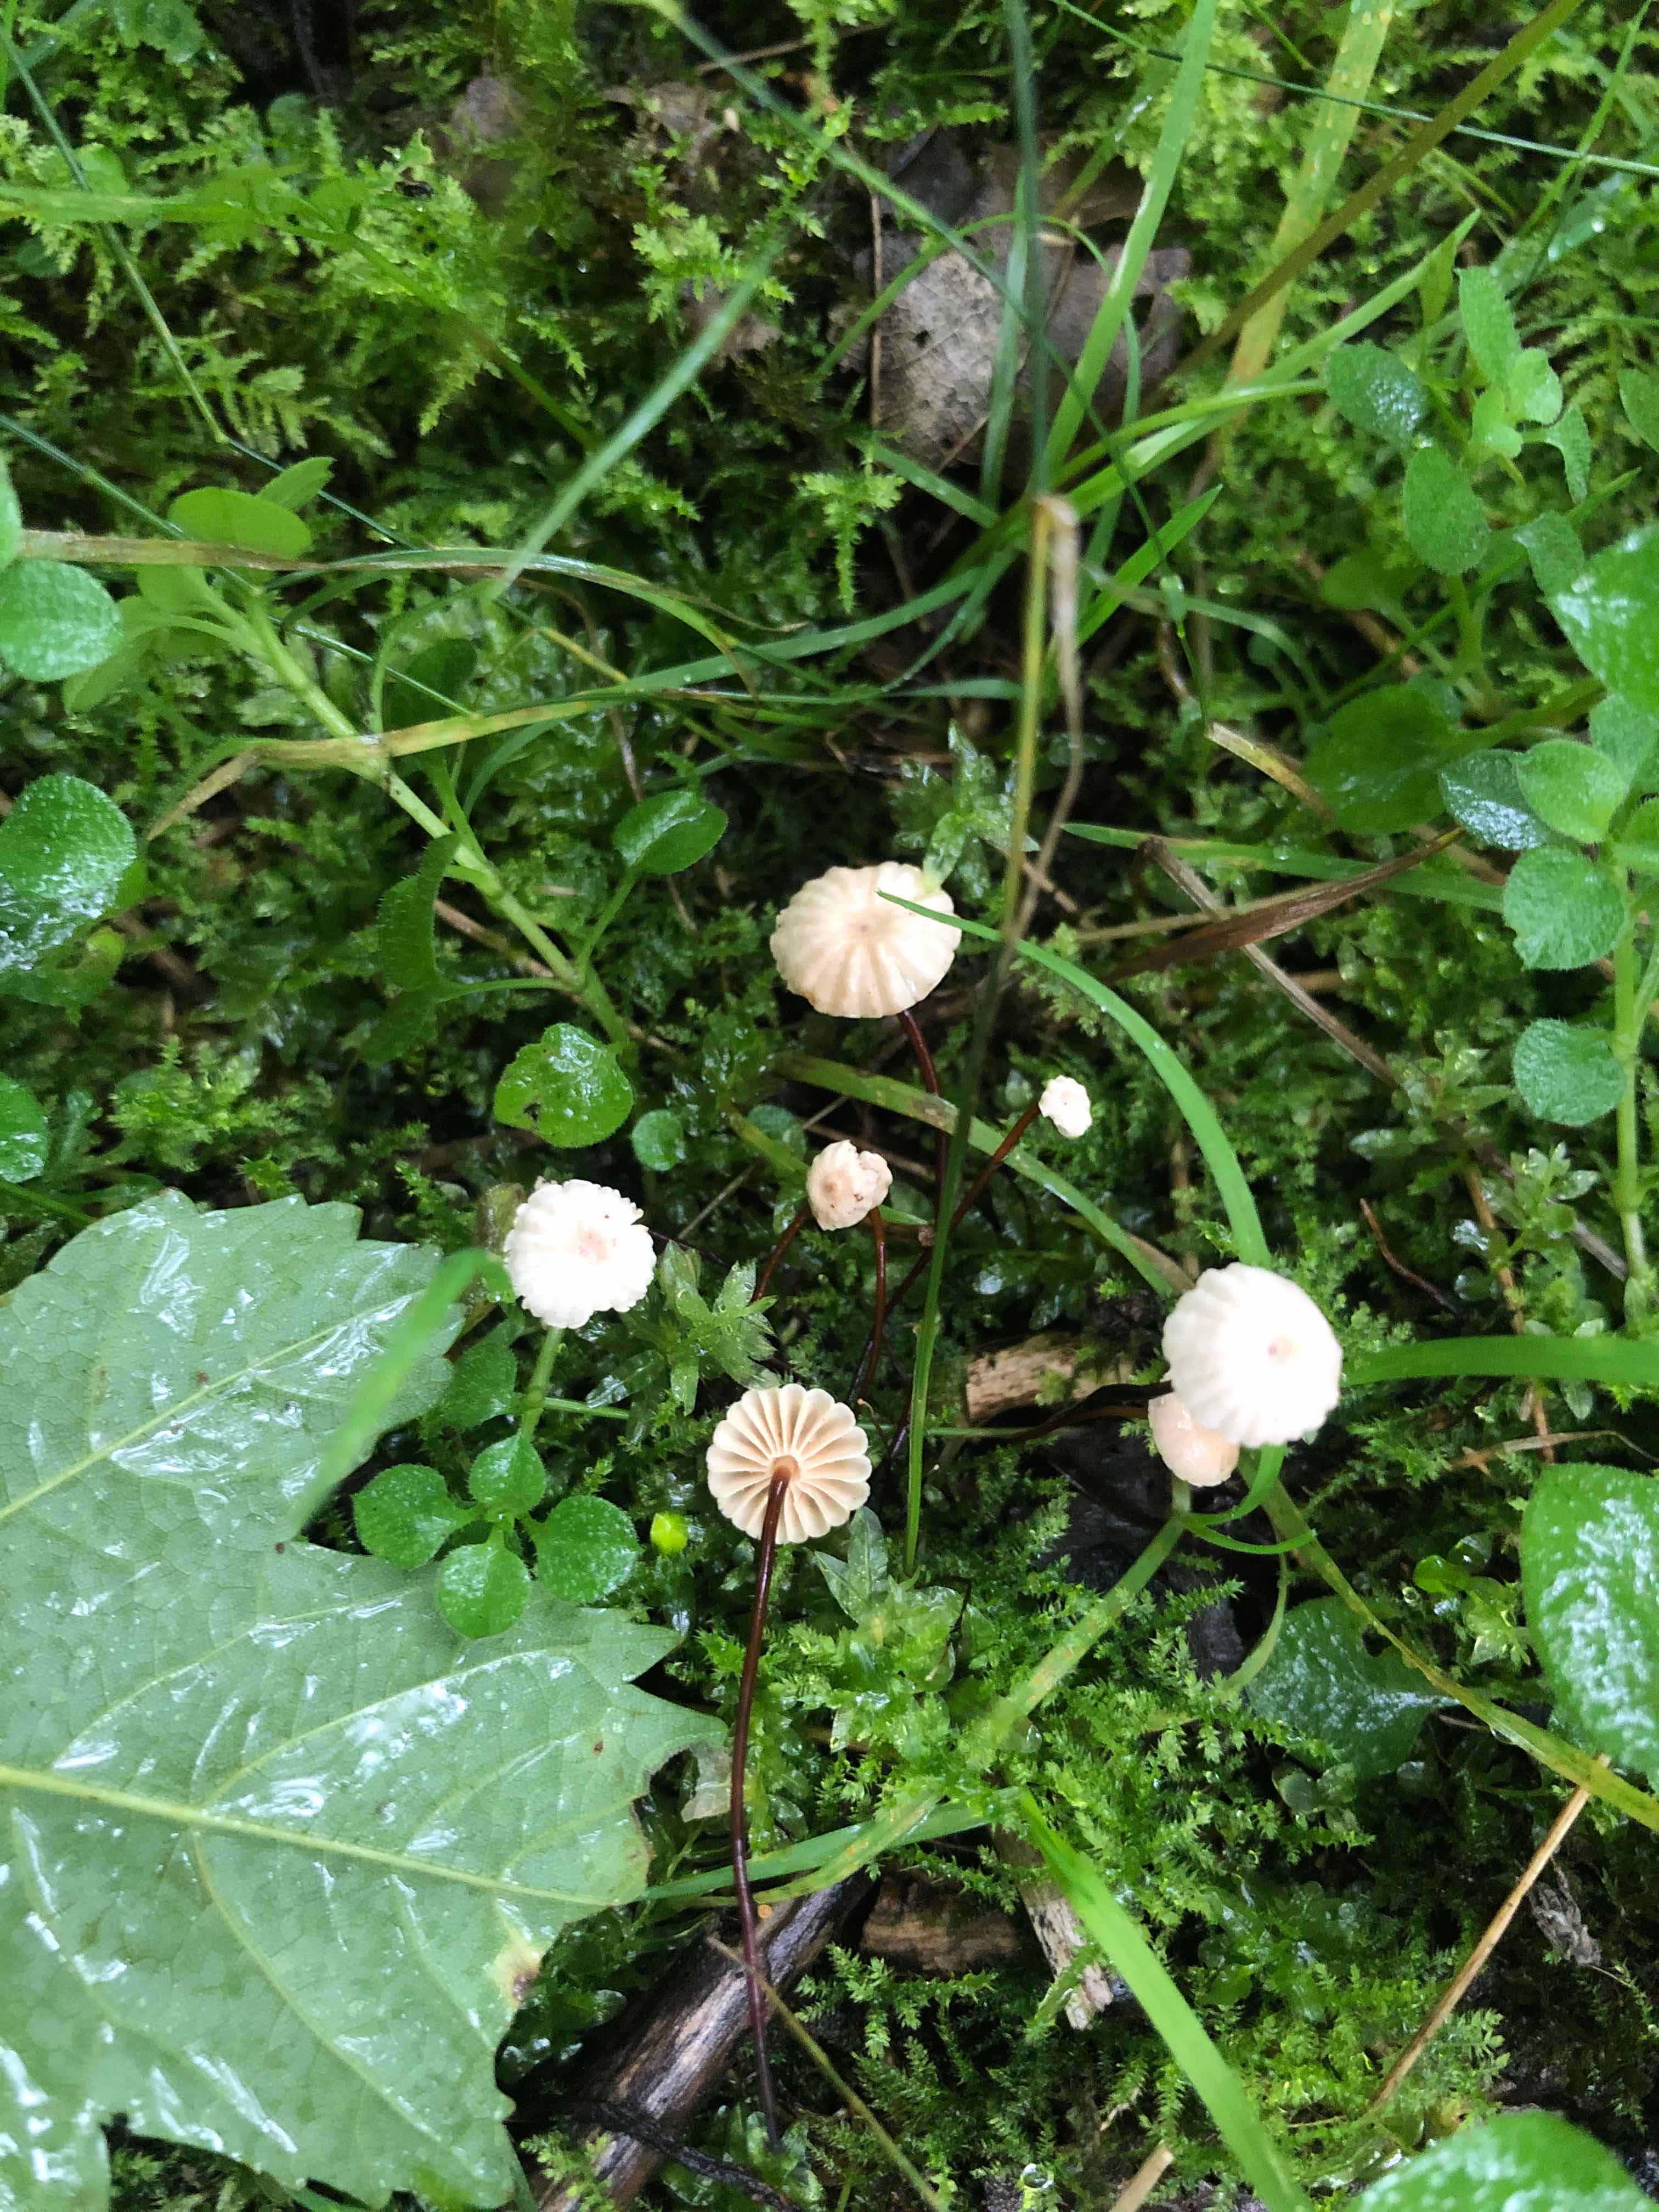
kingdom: Fungi
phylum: Basidiomycota
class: Agaricomycetes
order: Agaricales
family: Marasmiaceae
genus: Marasmius
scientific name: Marasmius rotula
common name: hjul-bruskhat
